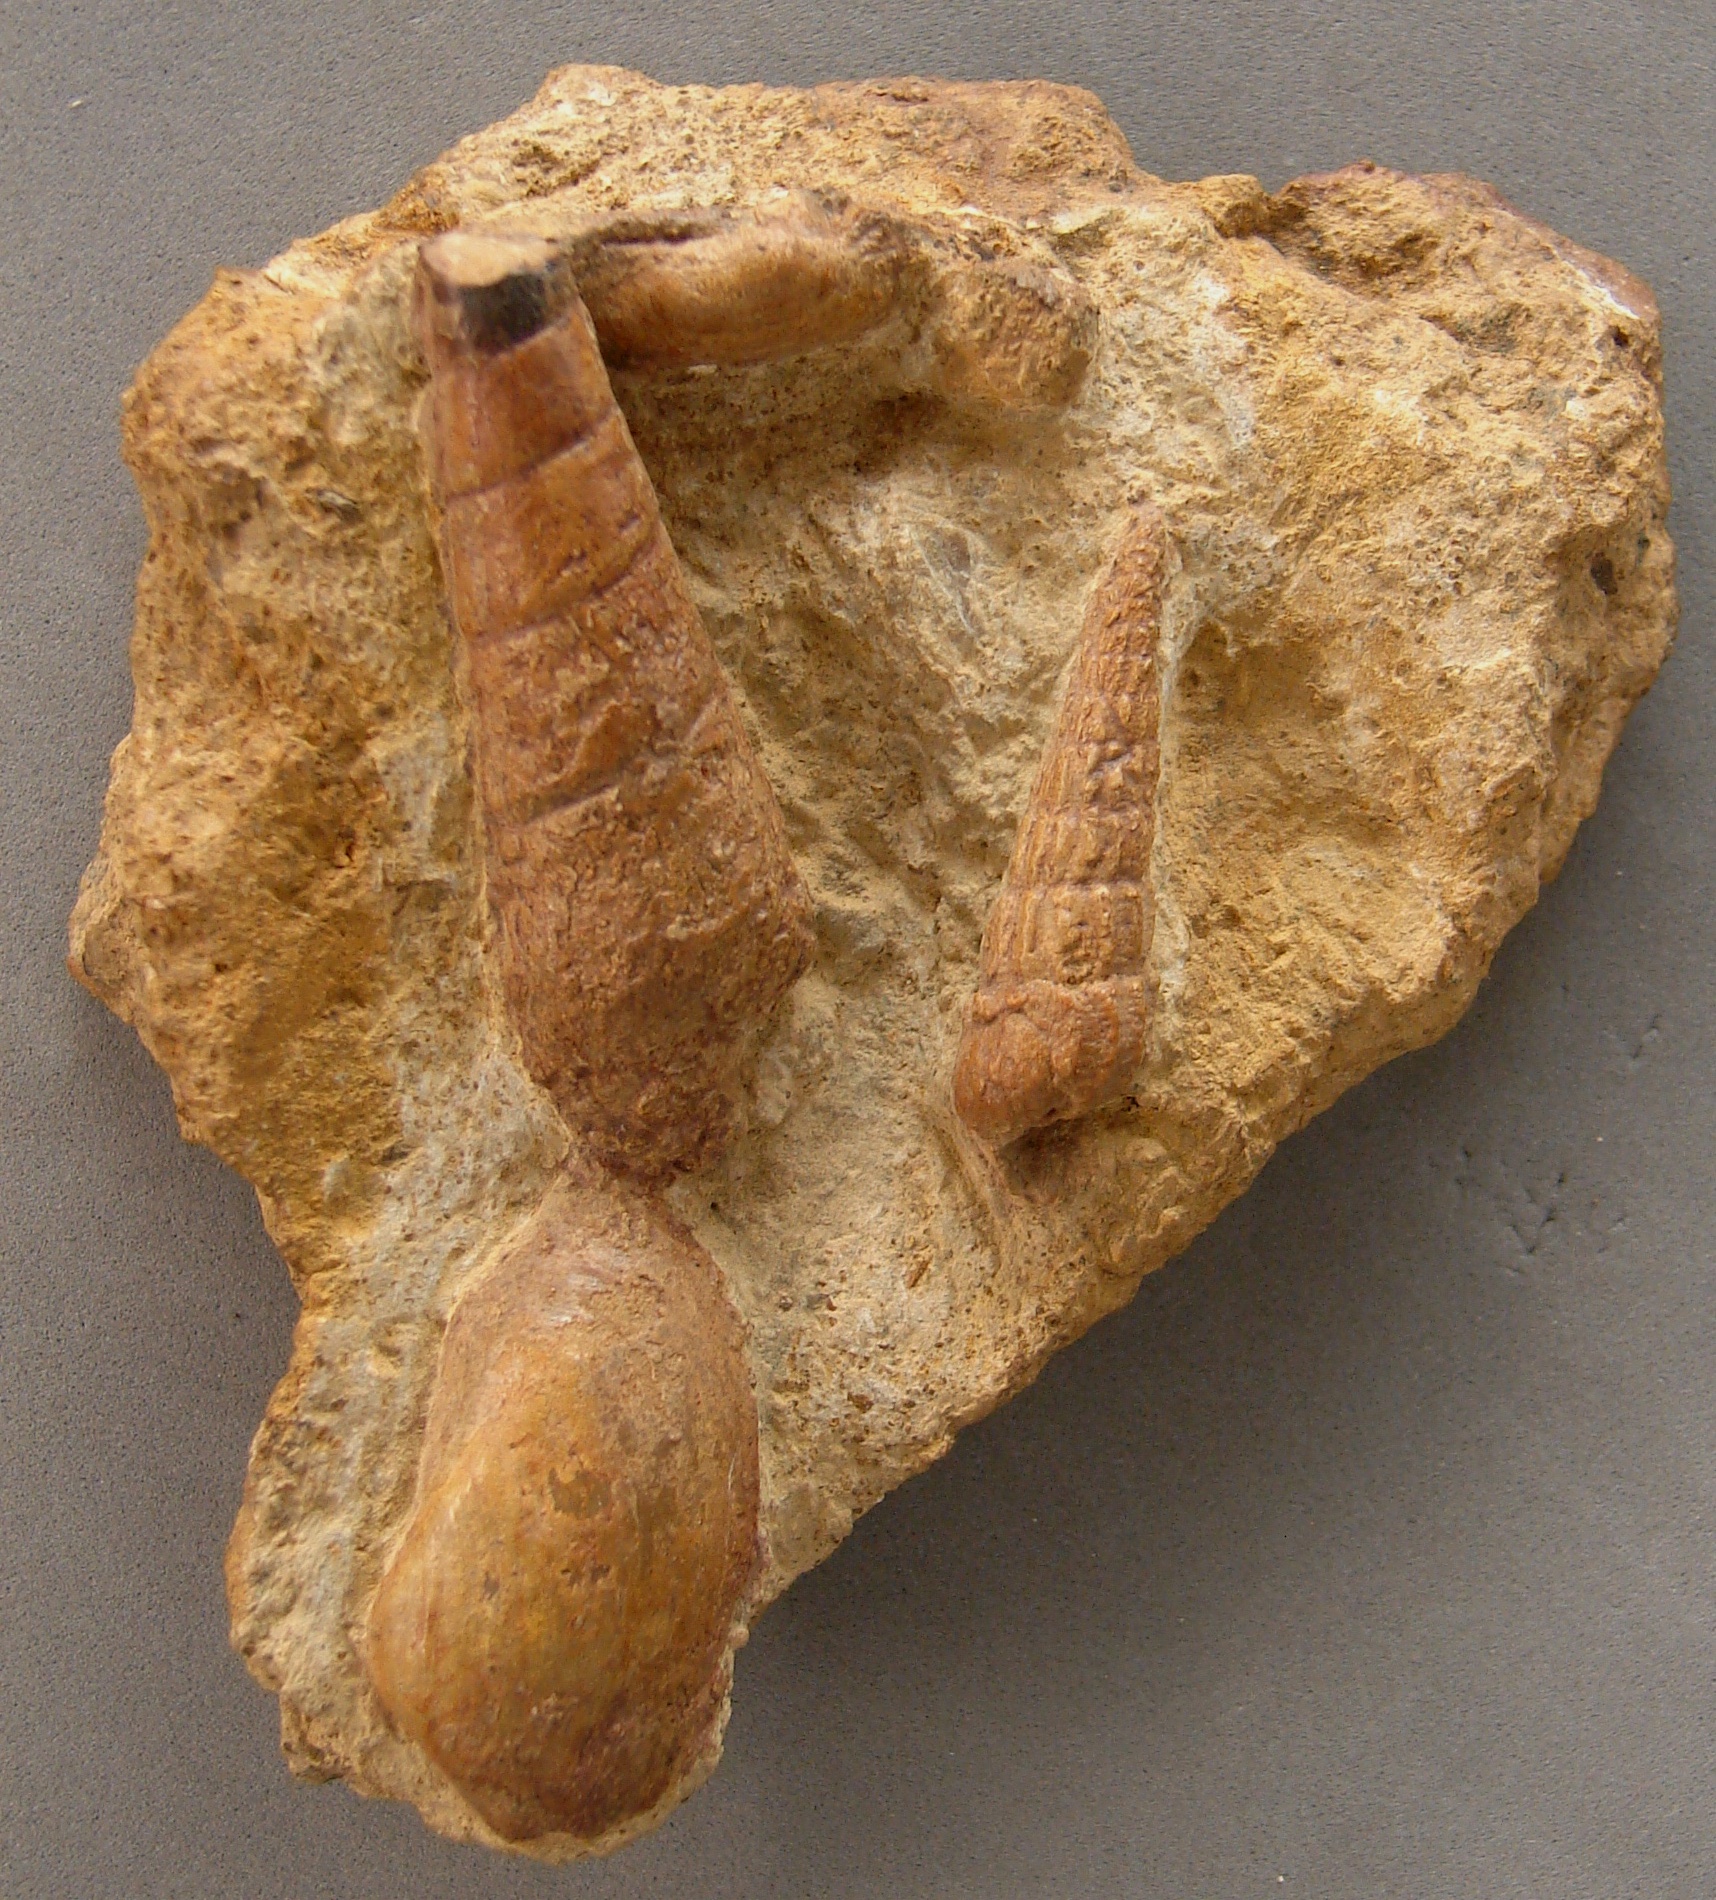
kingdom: Animalia
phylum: Mollusca
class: Gastropoda
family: Zygopleuridae
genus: Zygopleura
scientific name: Zygopleura
